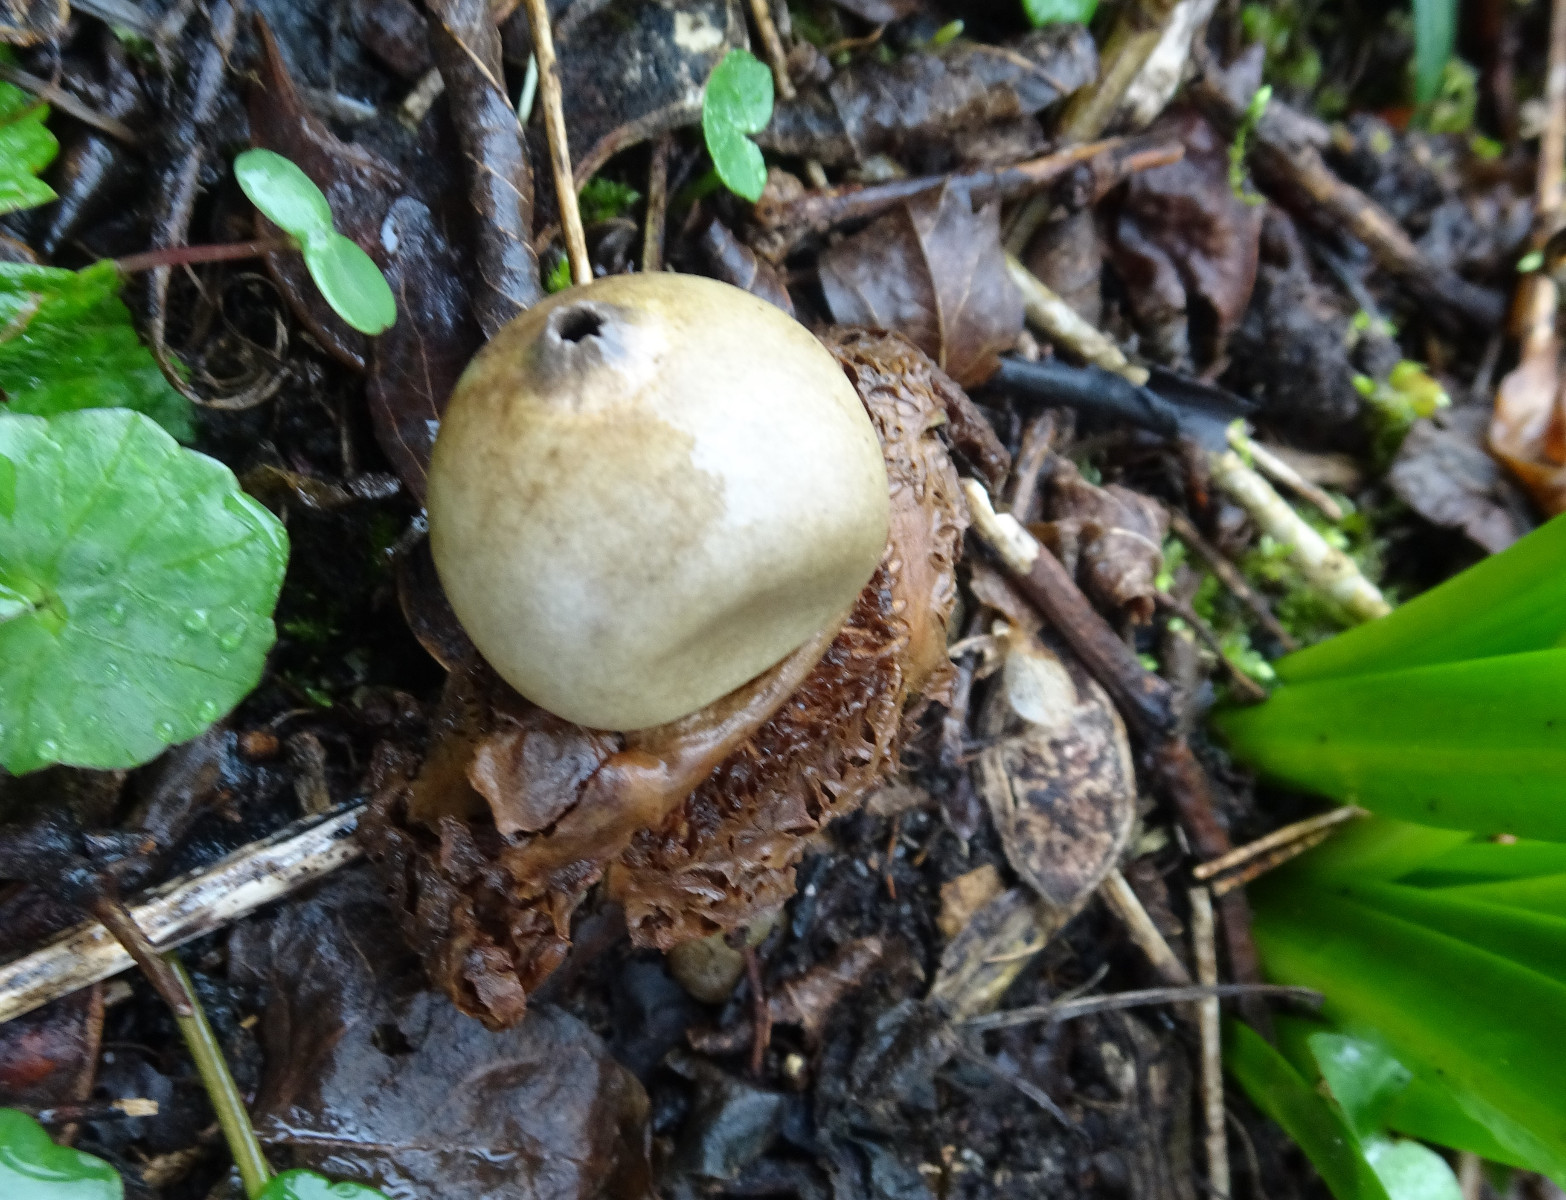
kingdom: Fungi
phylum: Basidiomycota
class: Agaricomycetes
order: Geastrales
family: Geastraceae
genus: Geastrum
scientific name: Geastrum michelianum
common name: kødet stjernebold
